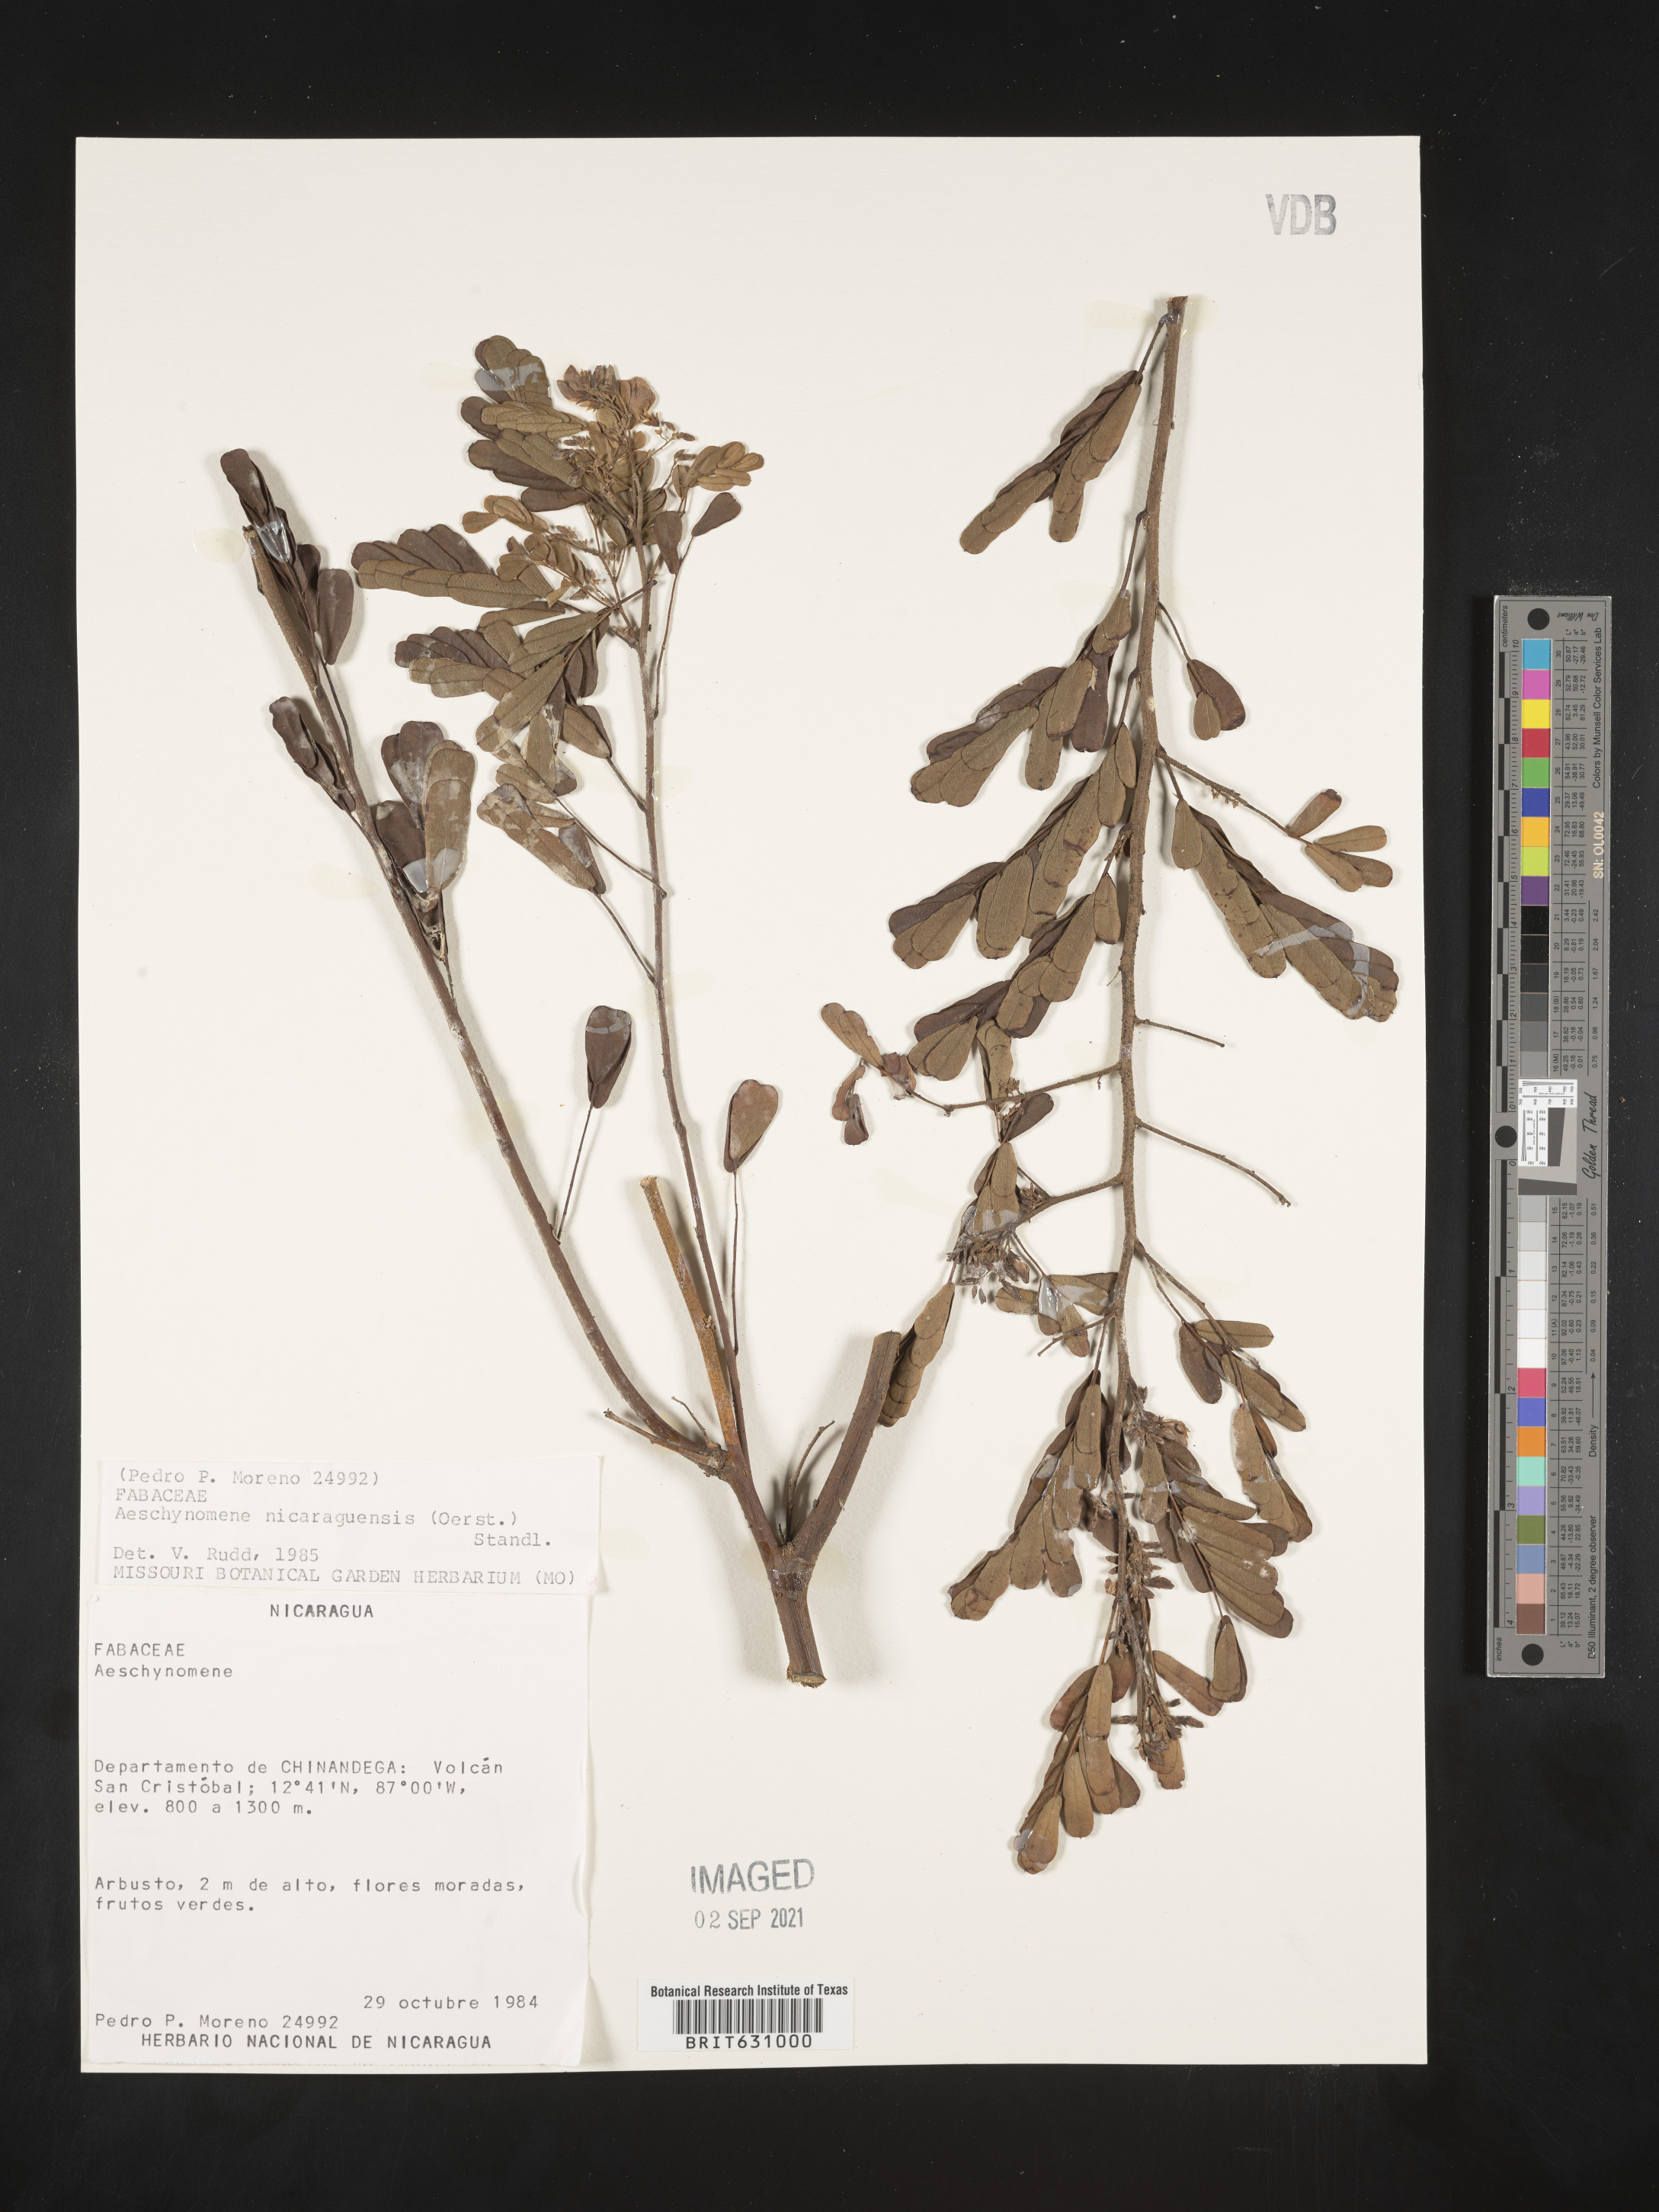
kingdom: Plantae
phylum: Tracheophyta
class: Magnoliopsida
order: Fabales
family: Fabaceae
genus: Aeschynomene
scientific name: Aeschynomene
